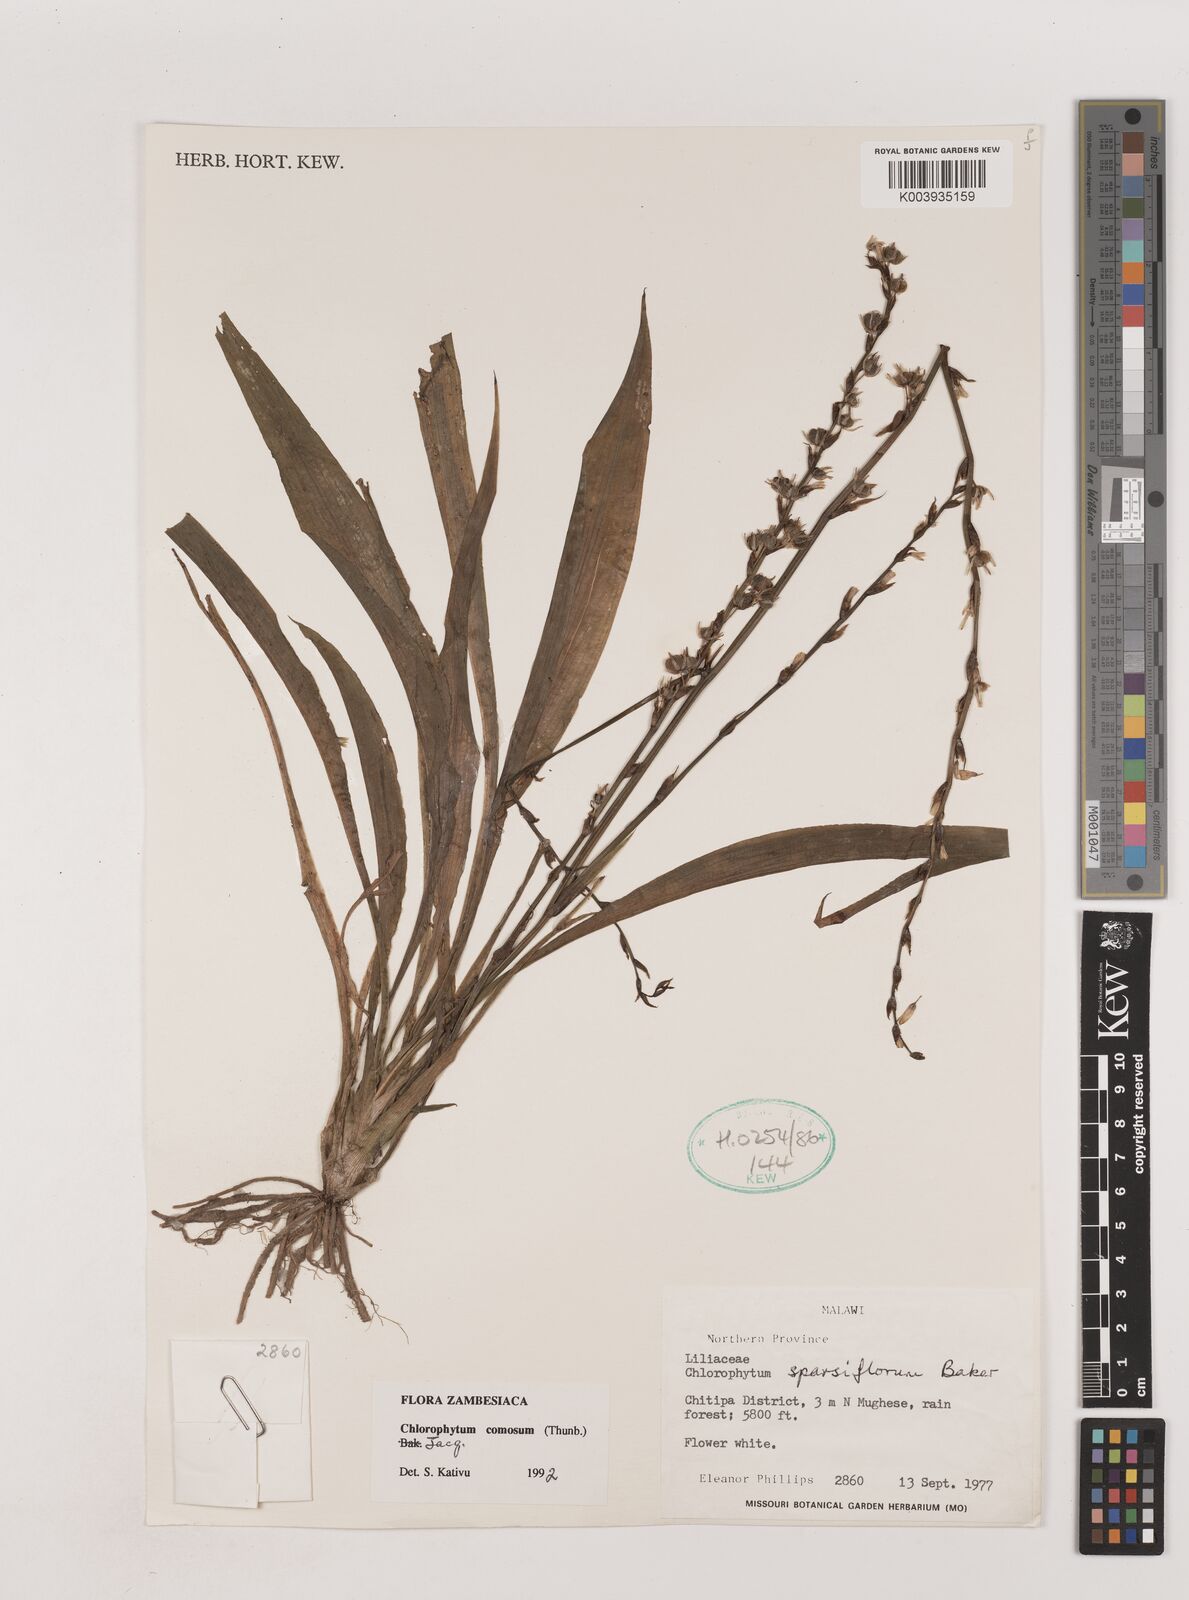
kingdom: Plantae
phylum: Tracheophyta
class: Liliopsida
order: Asparagales
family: Asparagaceae
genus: Chlorophytum
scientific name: Chlorophytum comosum
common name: Spider plant
